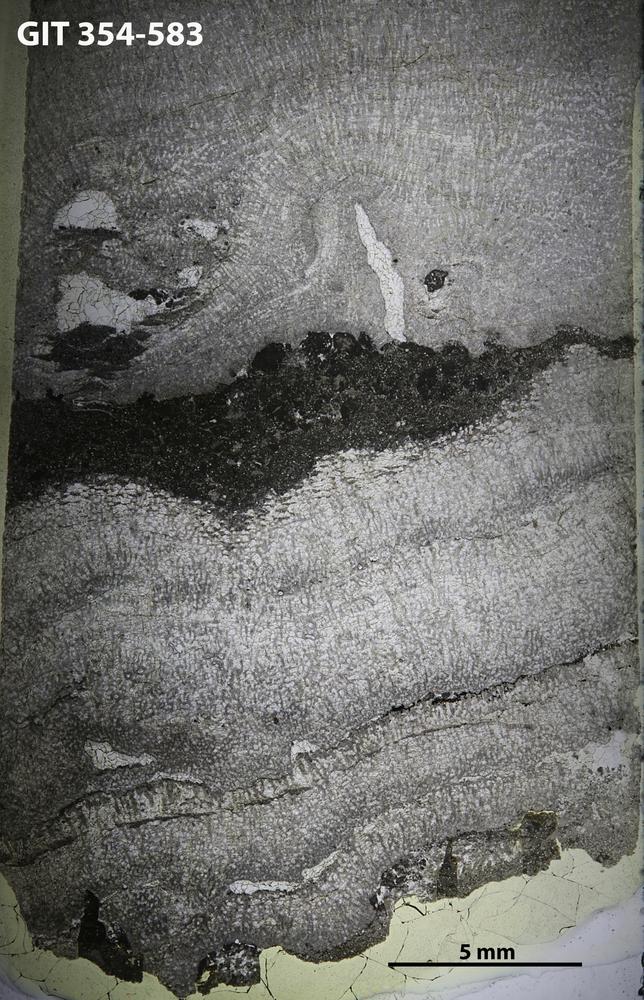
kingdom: Animalia
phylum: Porifera
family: Pseudolabechiidae
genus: Vikingia
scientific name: Vikingia
